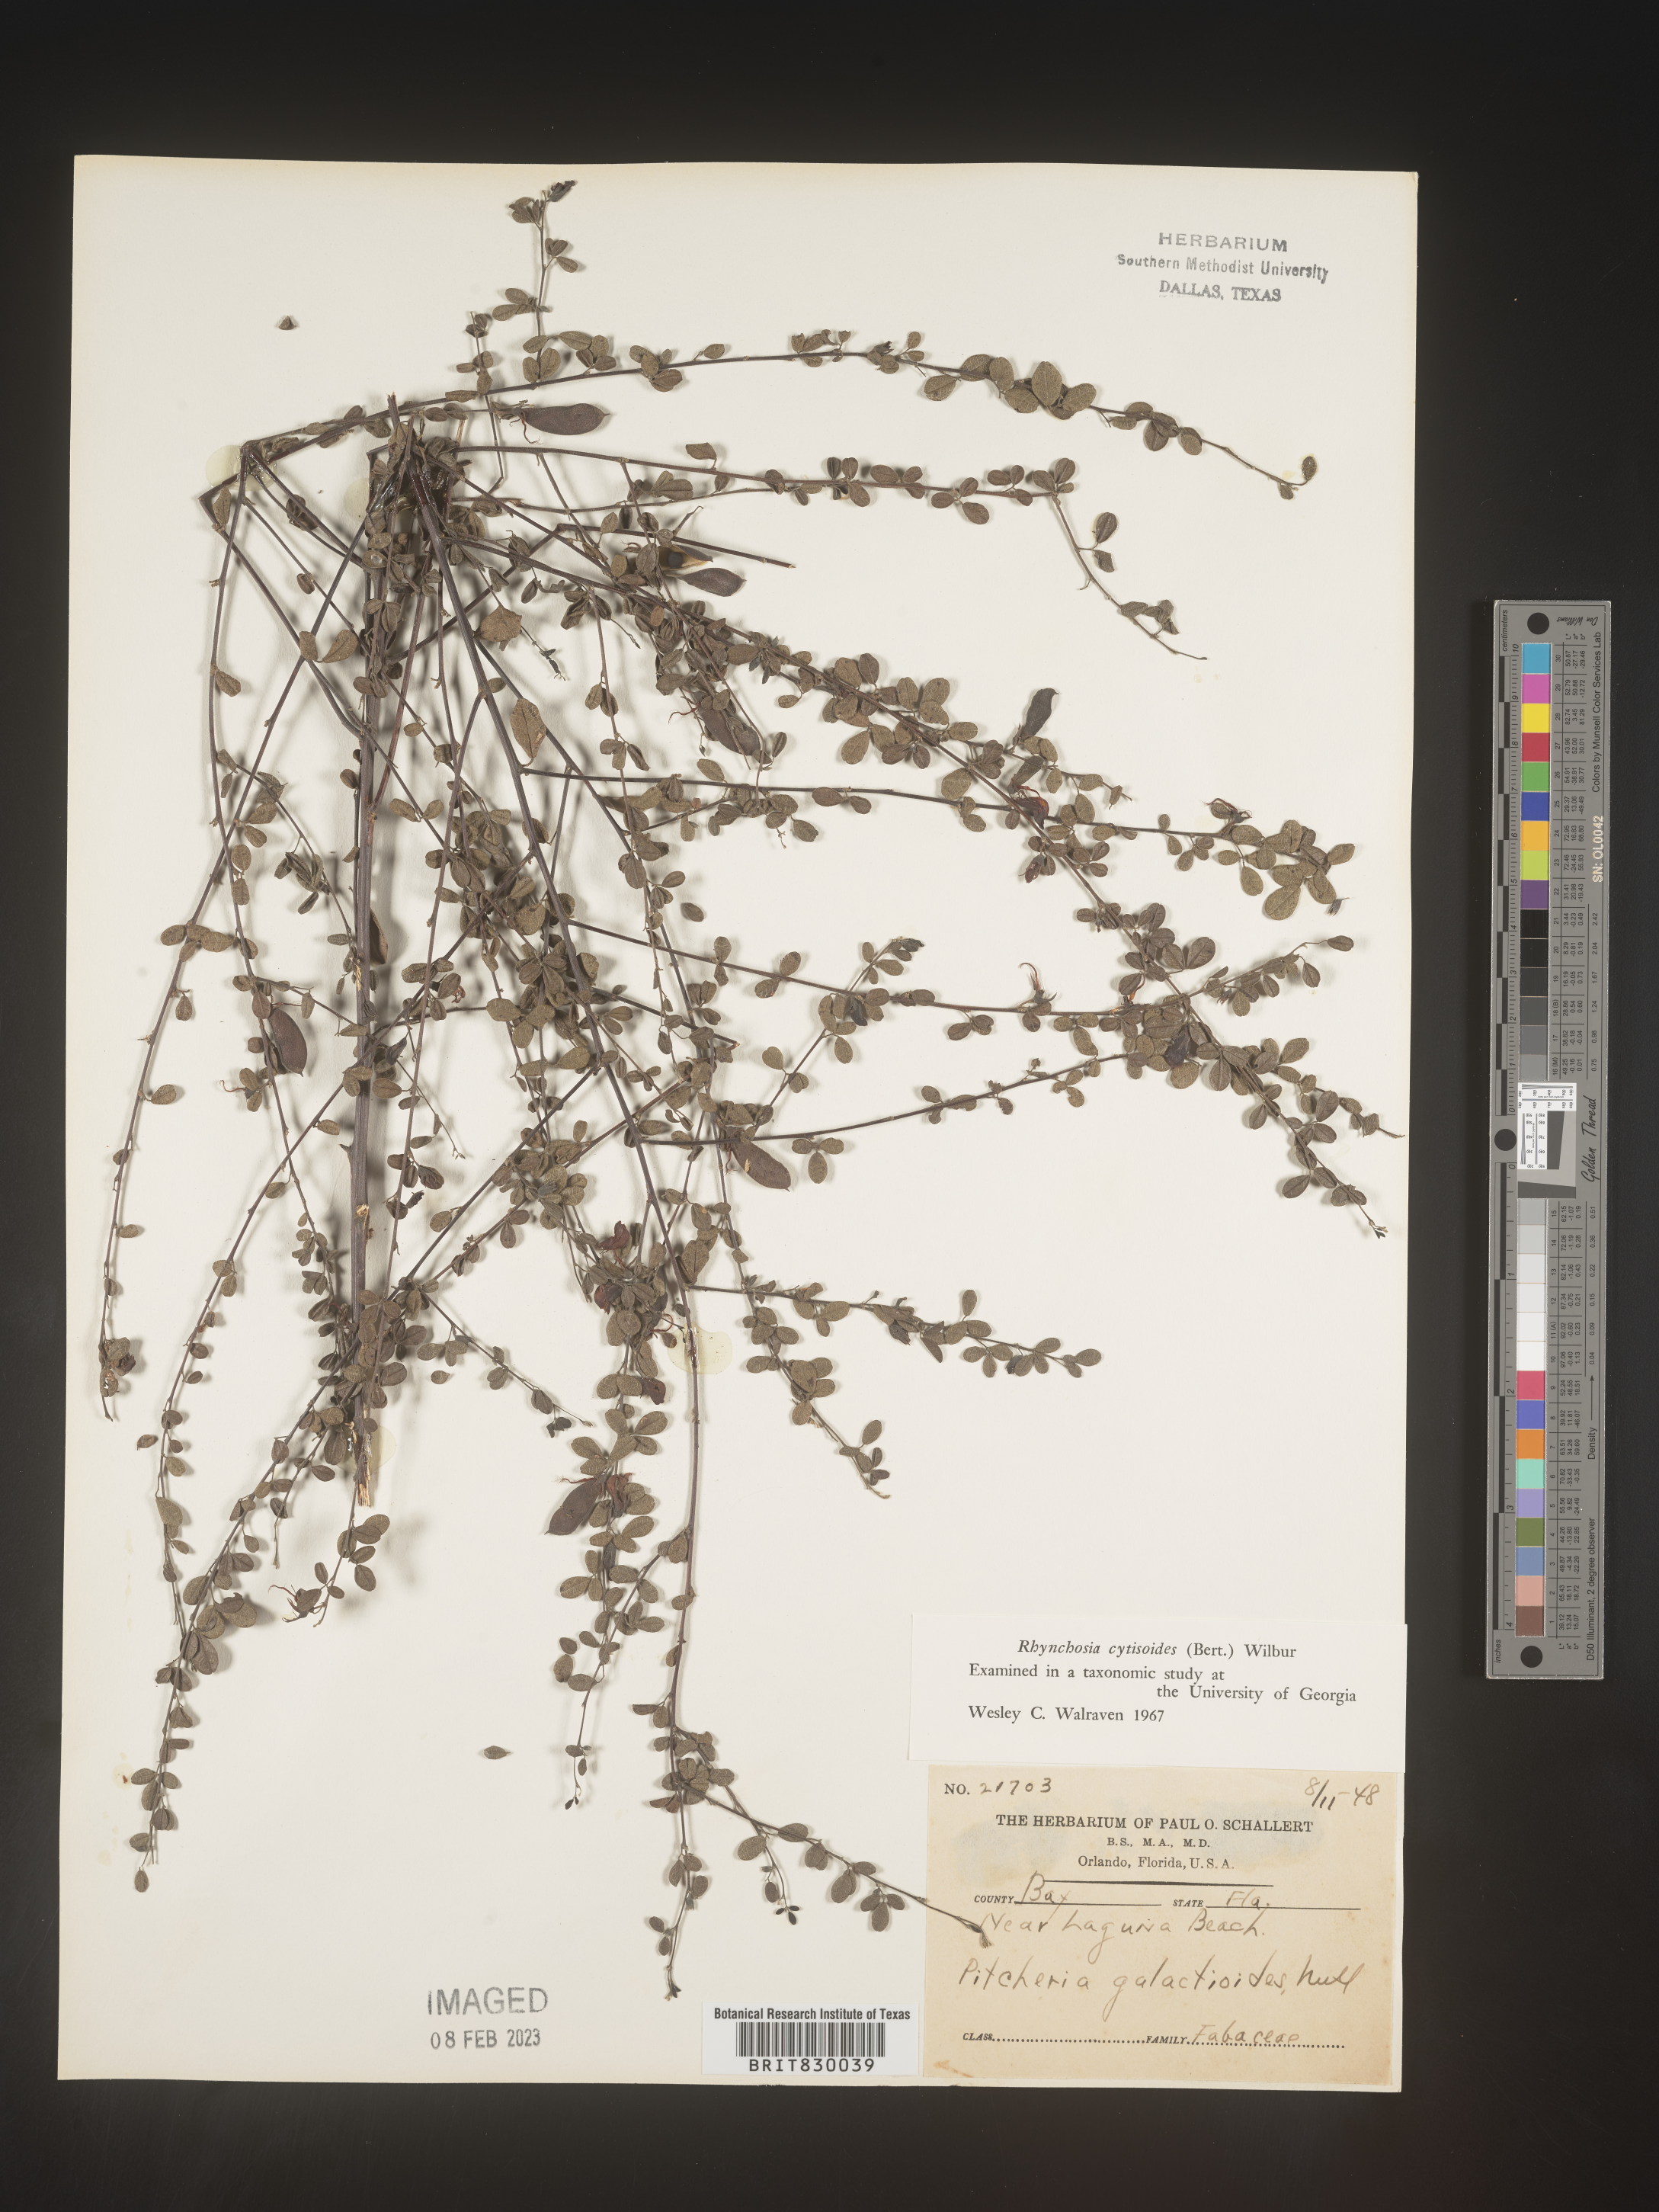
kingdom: Plantae
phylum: Tracheophyta
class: Magnoliopsida
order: Fabales
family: Fabaceae
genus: Rhynchosia
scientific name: Rhynchosia
